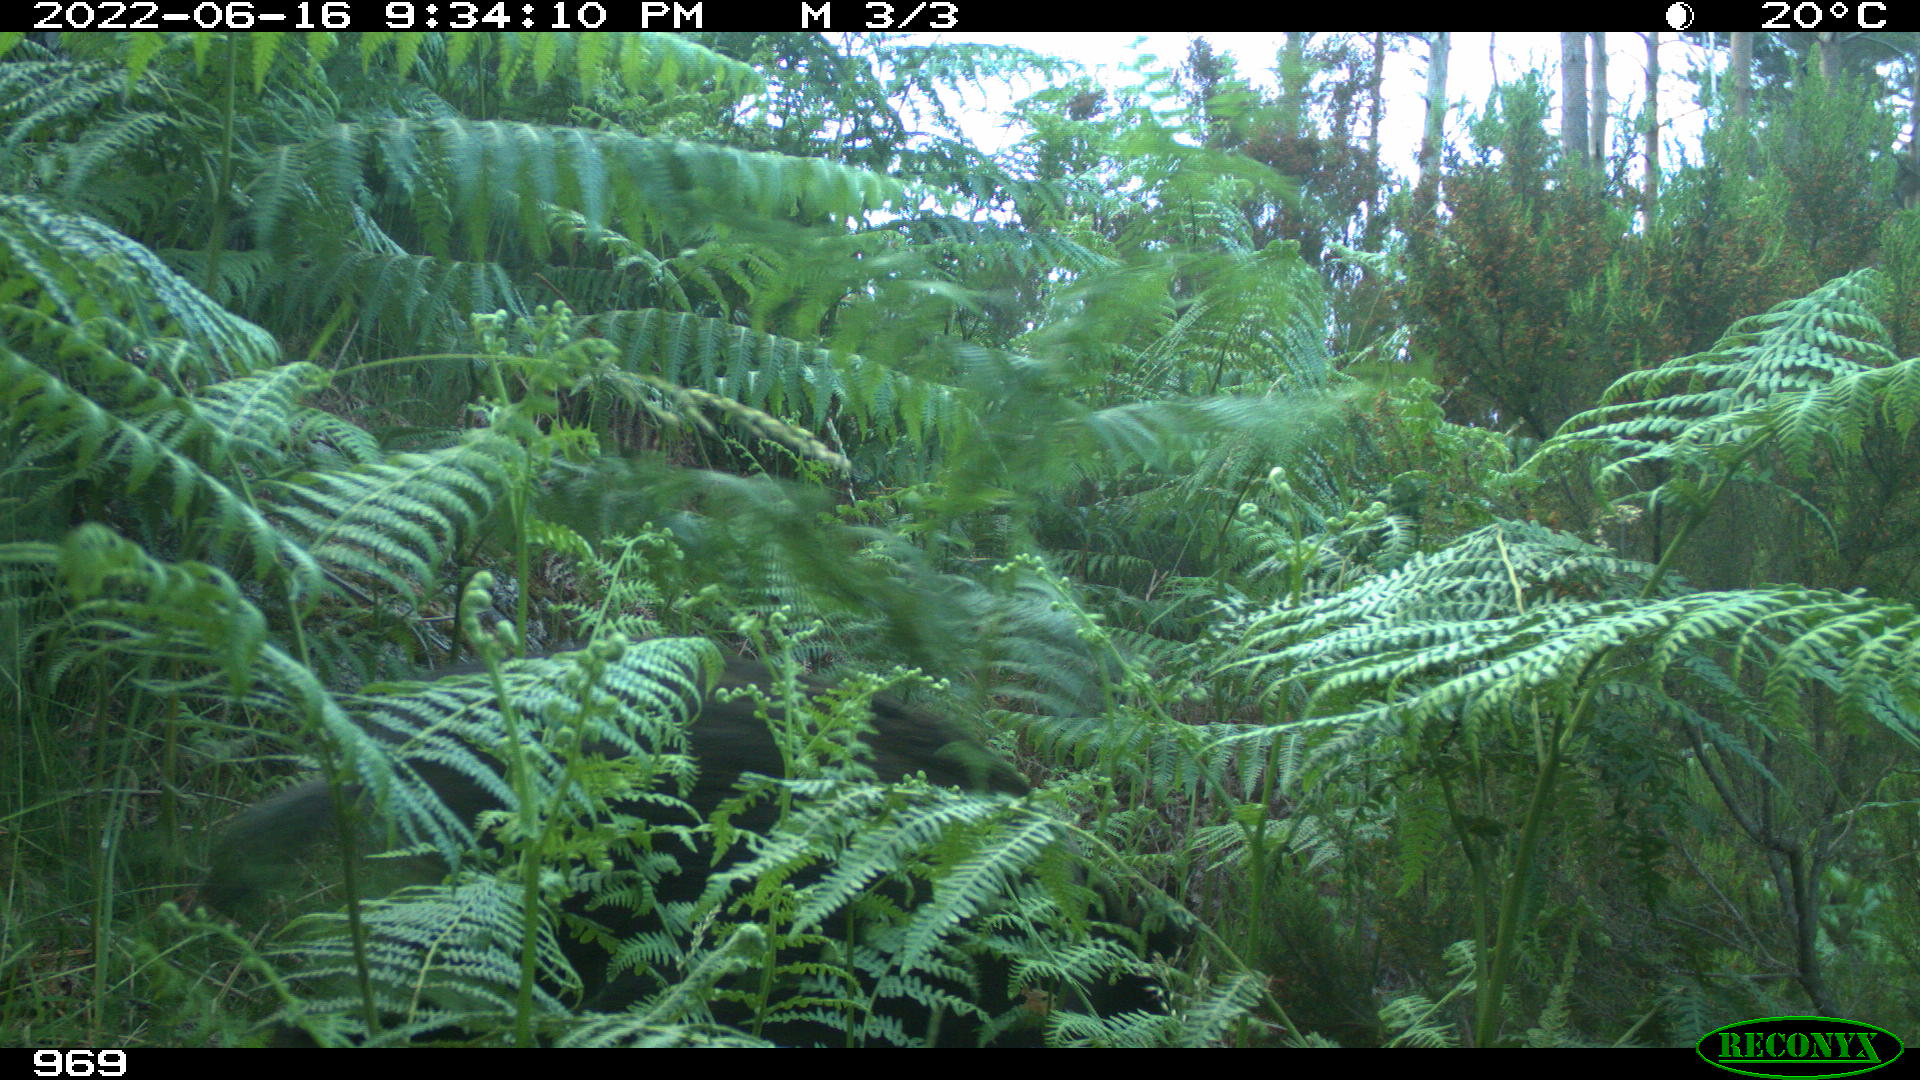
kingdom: Animalia
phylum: Chordata
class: Mammalia
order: Artiodactyla
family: Suidae
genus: Sus
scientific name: Sus scrofa
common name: Wild boar
